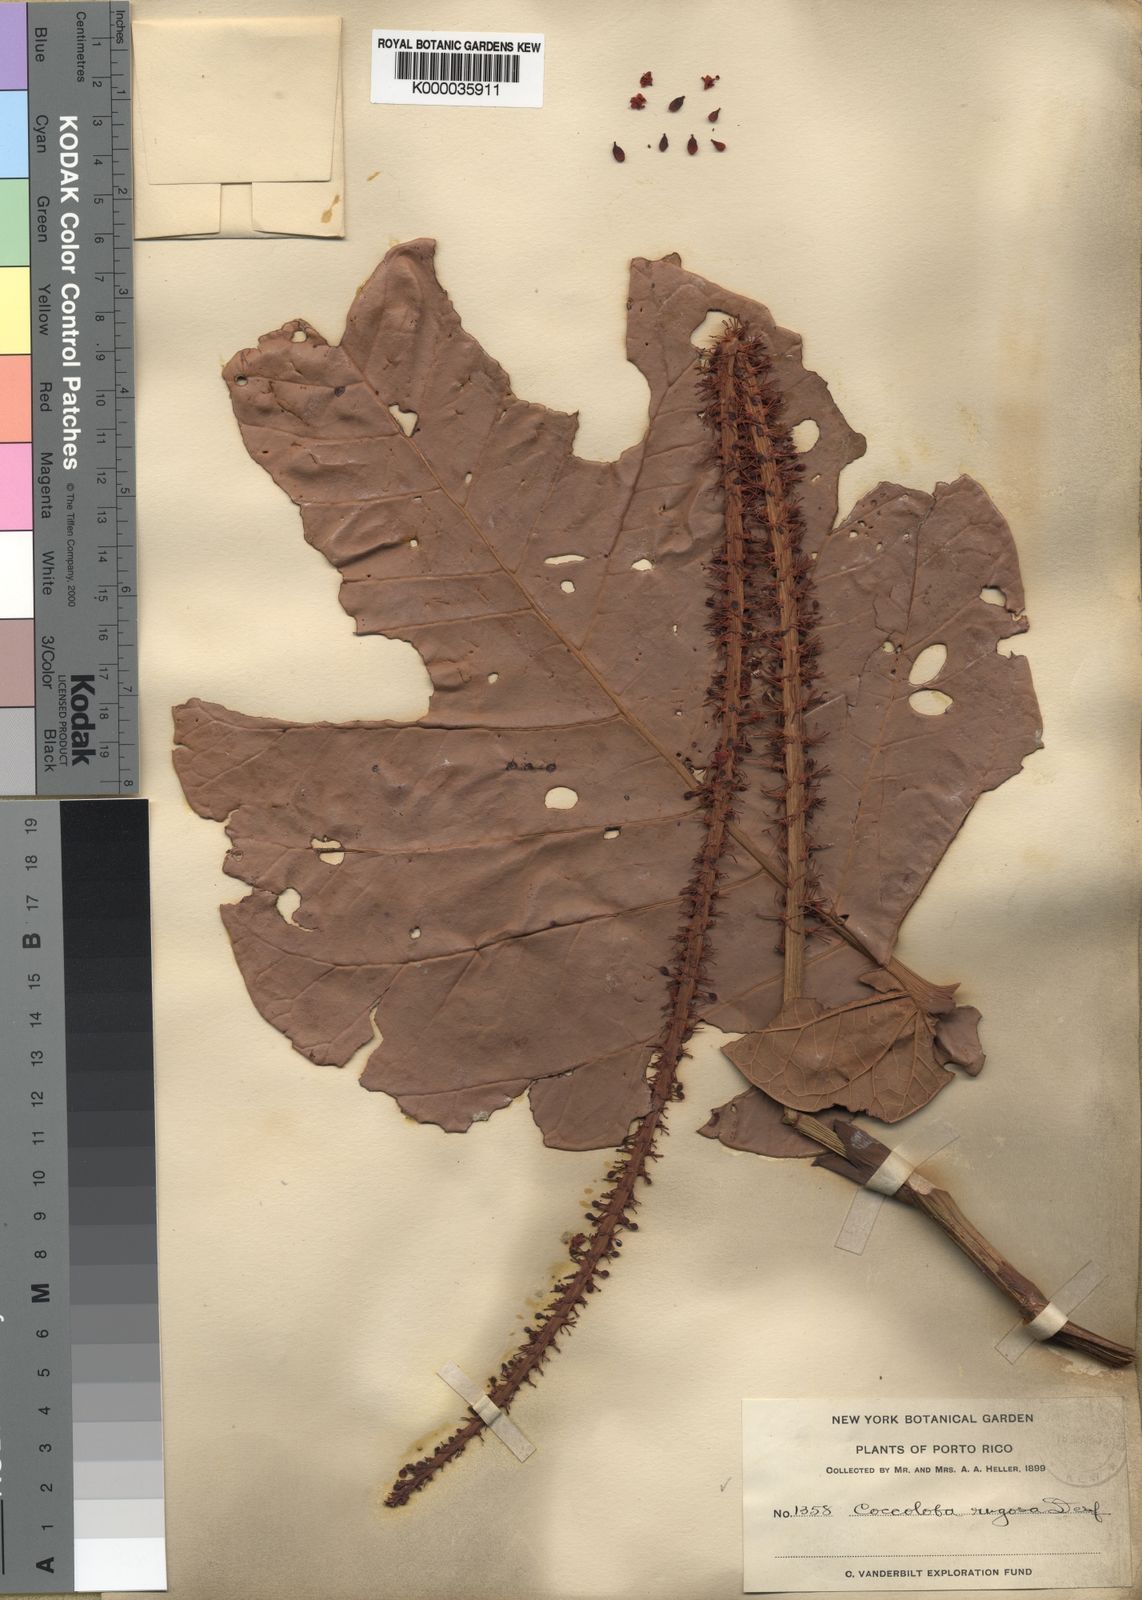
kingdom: Plantae
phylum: Tracheophyta
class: Magnoliopsida
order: Caryophyllales
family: Polygonaceae
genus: Coccoloba
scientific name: Coccoloba rugosa
